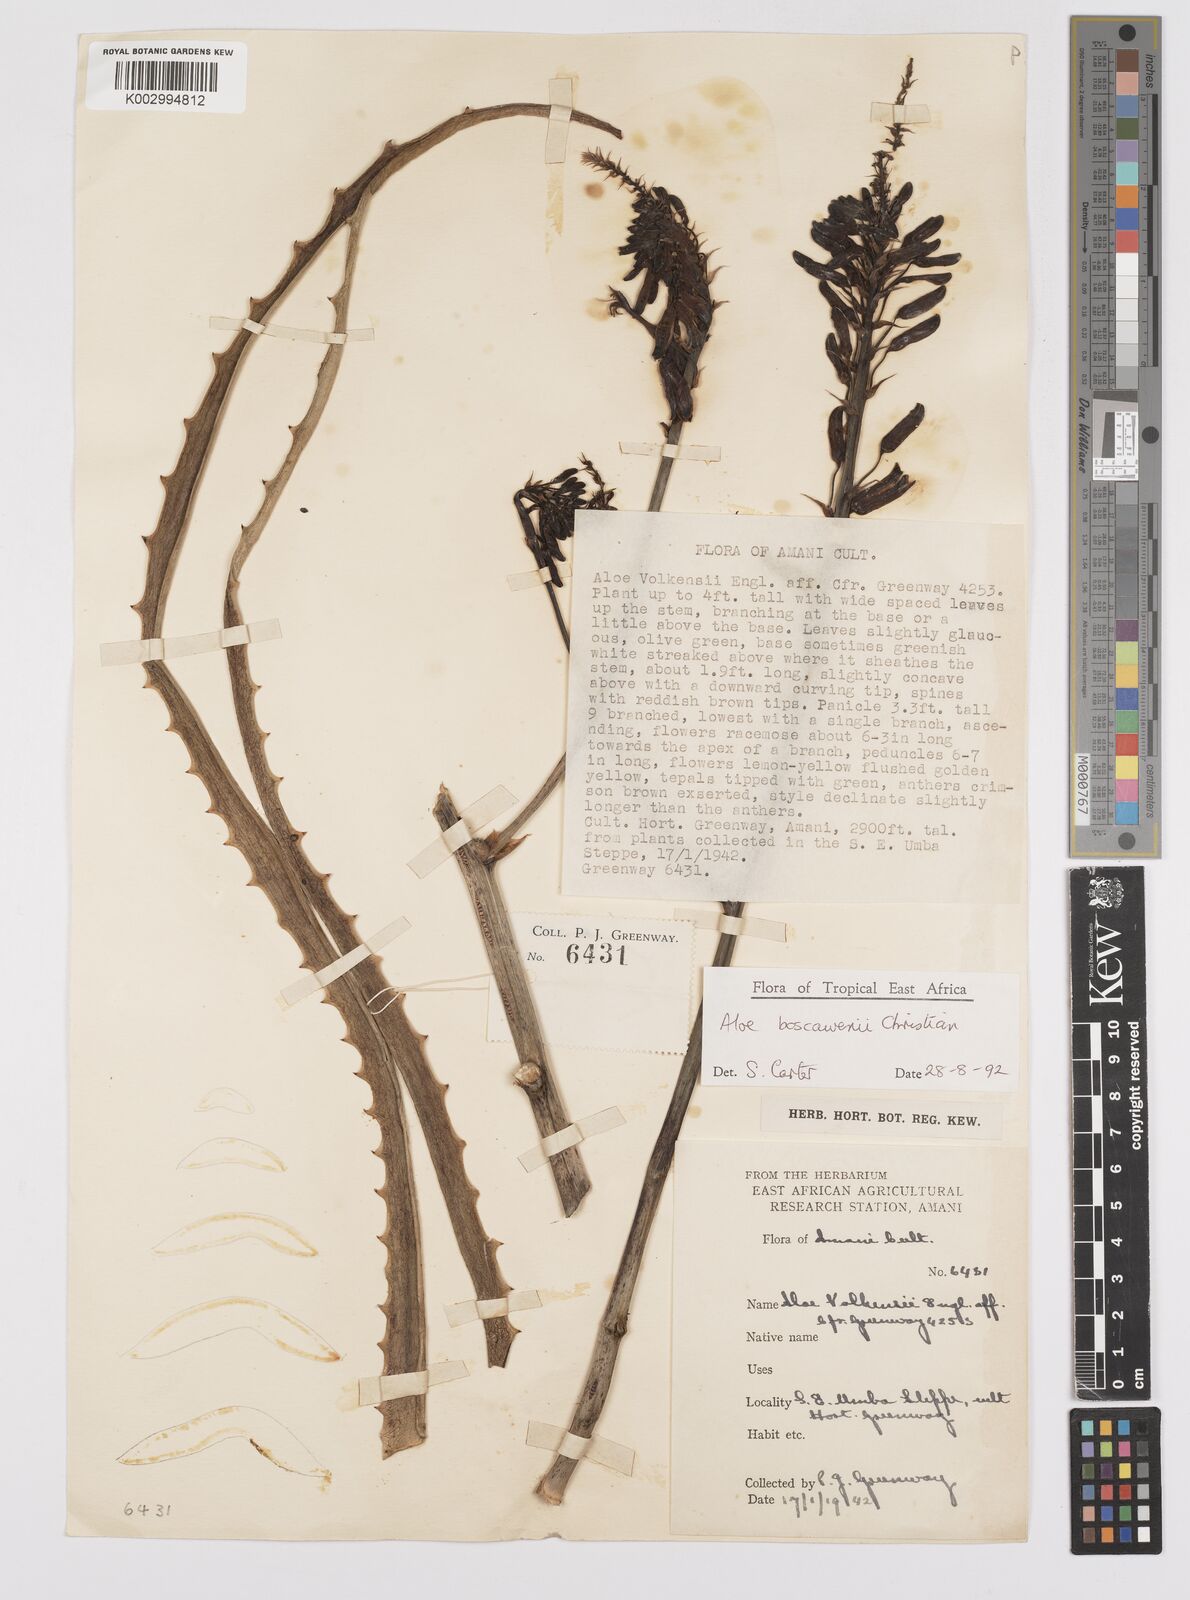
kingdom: Plantae
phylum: Tracheophyta
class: Liliopsida
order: Asparagales
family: Asphodelaceae
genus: Aloe
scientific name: Aloe boscawenii
